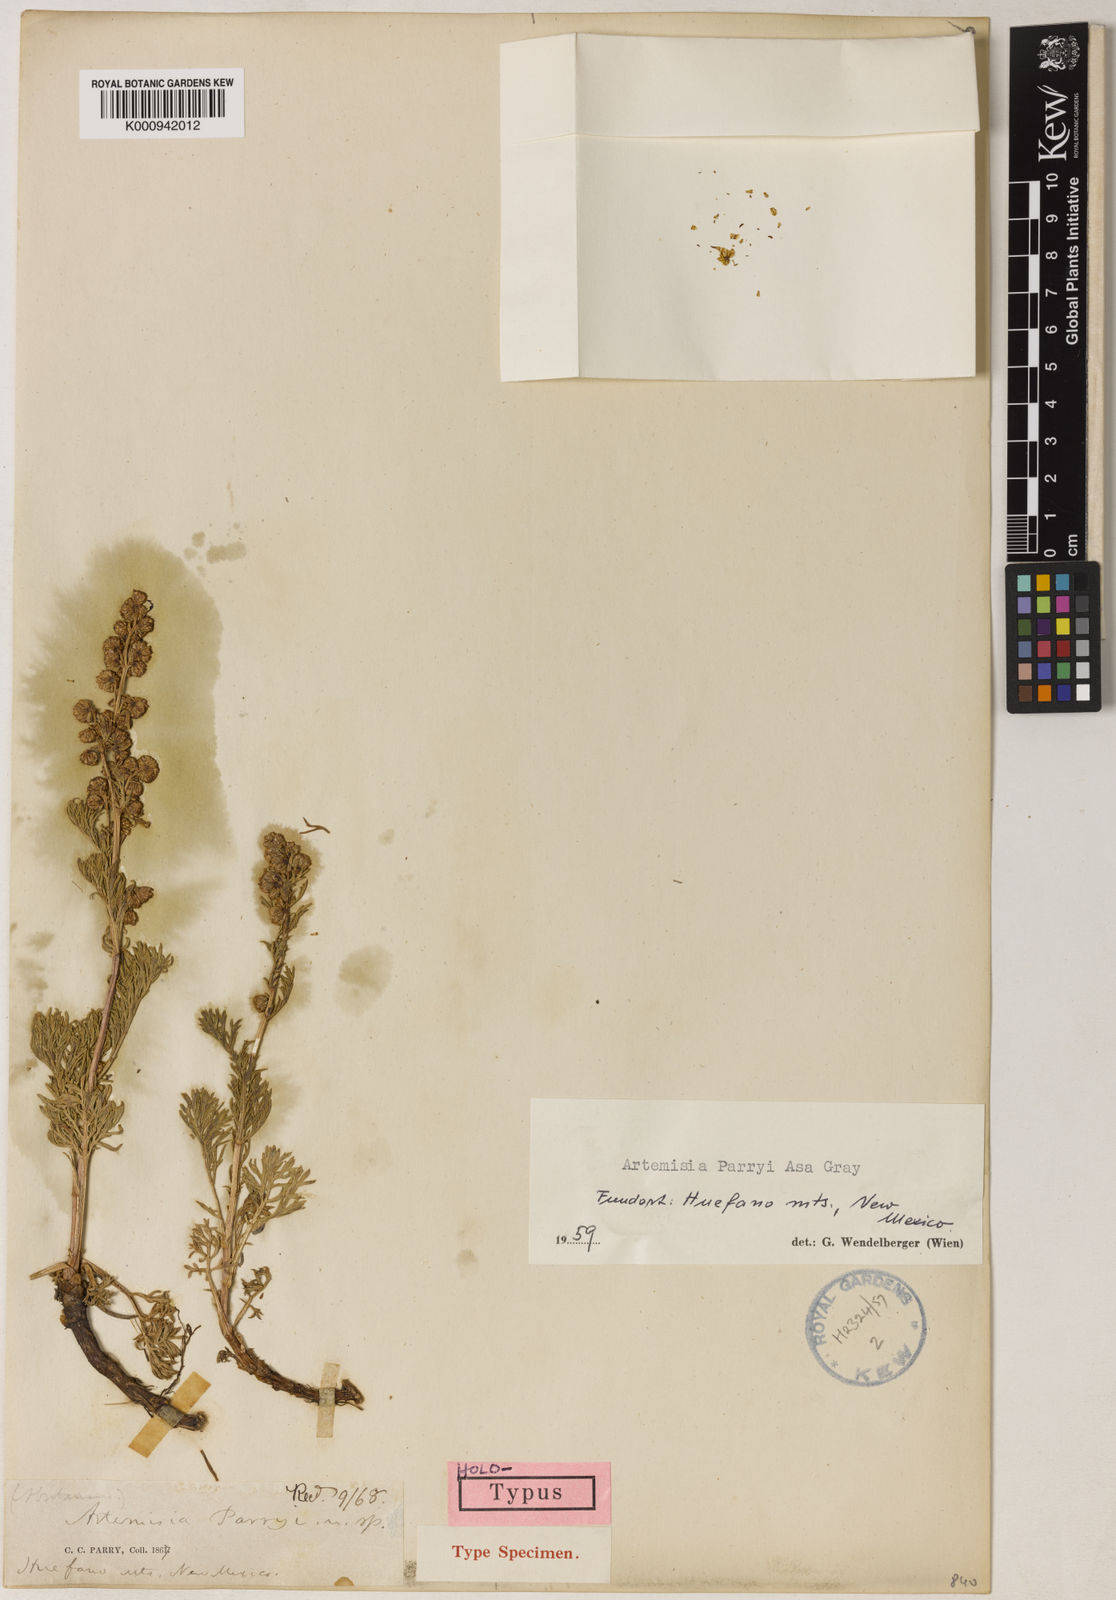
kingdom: Plantae
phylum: Tracheophyta
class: Magnoliopsida
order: Asterales
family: Asteraceae
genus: Artemisia
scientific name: Artemisia laciniata
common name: Siberian wormwood
